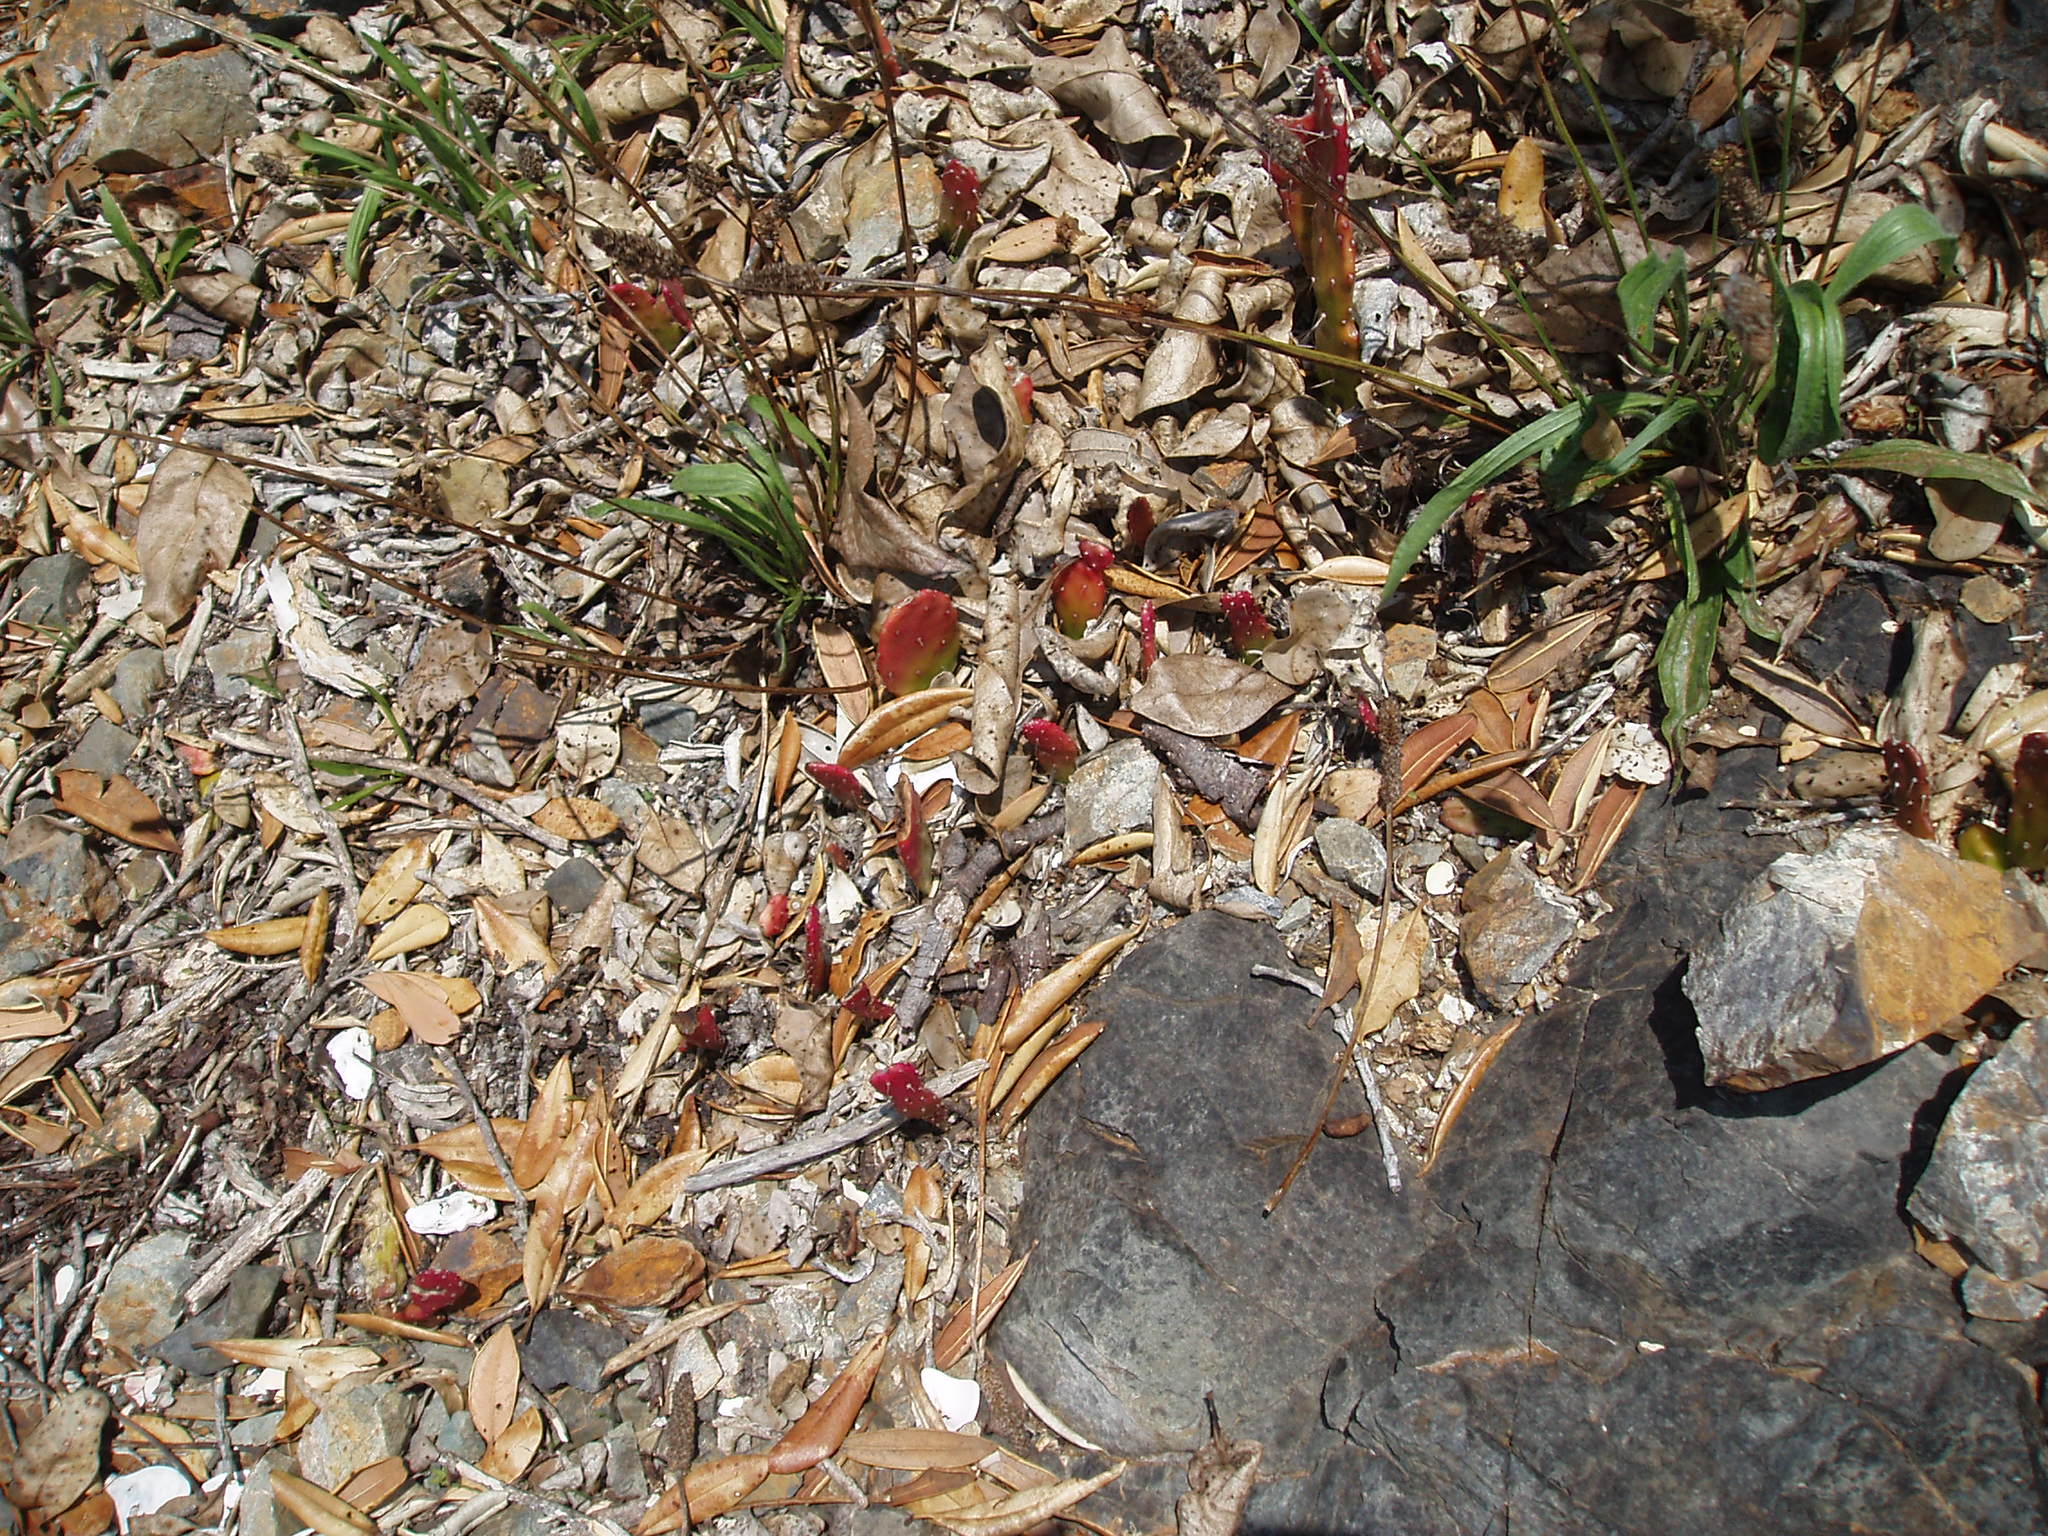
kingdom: Plantae
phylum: Tracheophyta
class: Magnoliopsida
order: Caryophyllales
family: Cactaceae
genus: Opuntia
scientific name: Opuntia monacantha
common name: Common pricklypear
